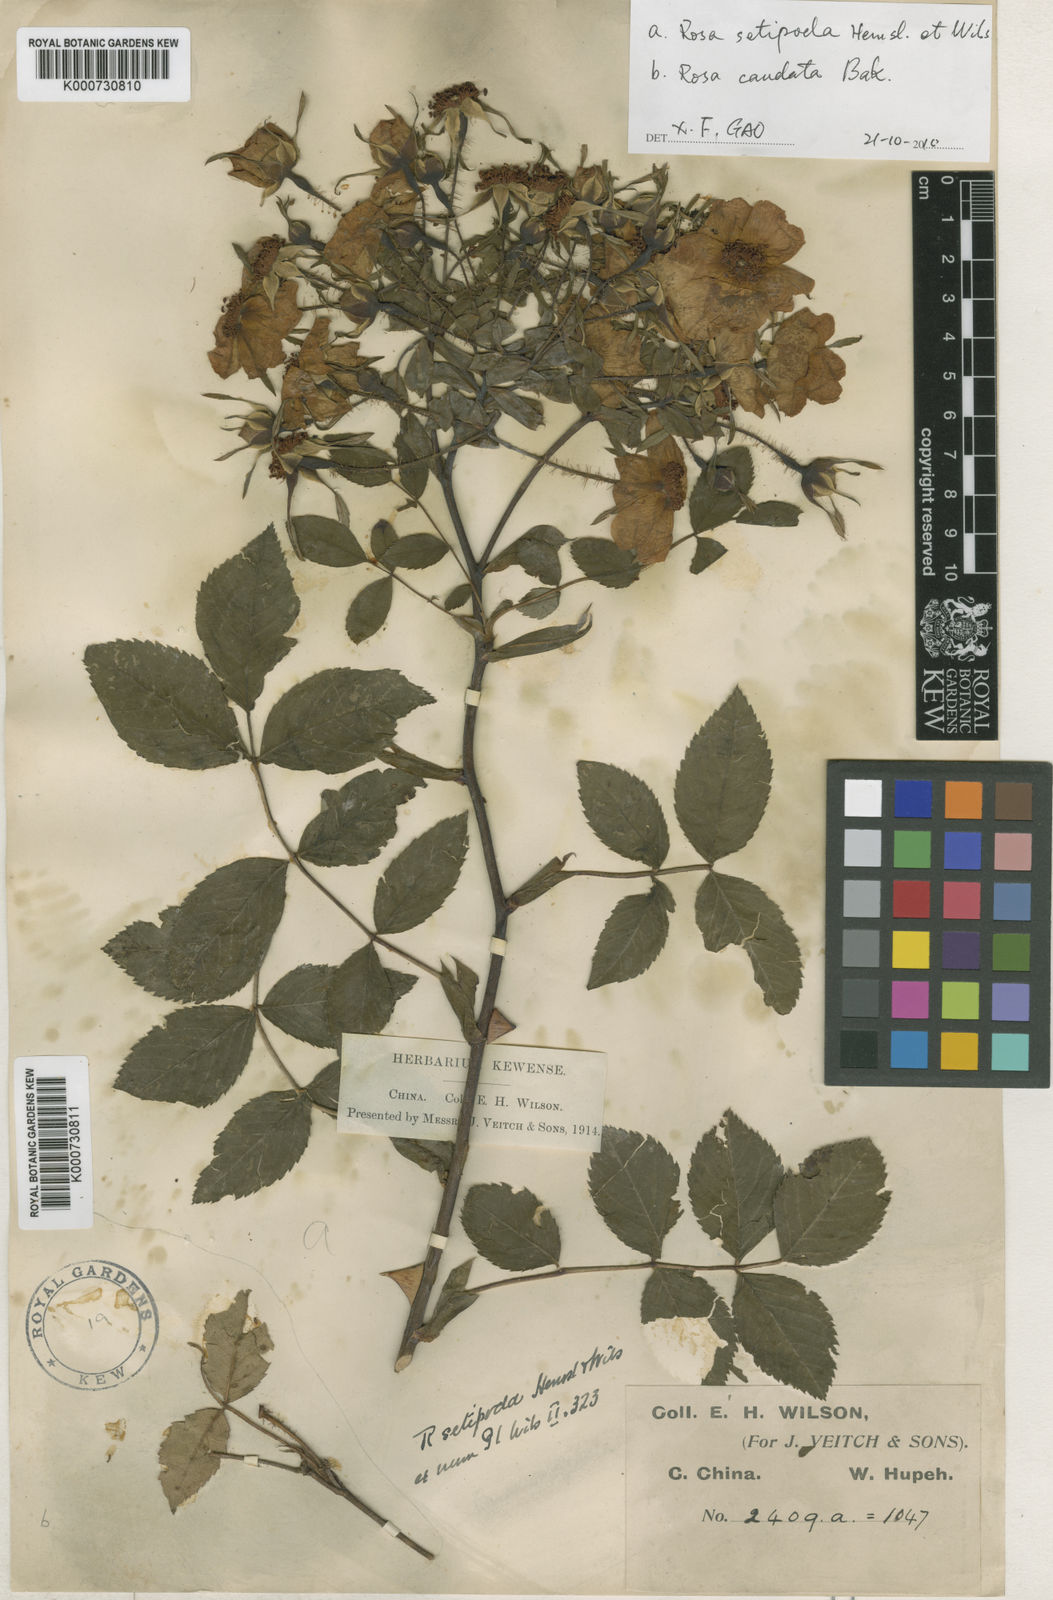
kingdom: Plantae
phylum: Tracheophyta
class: Magnoliopsida
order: Rosales
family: Rosaceae
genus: Rosa
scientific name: Rosa macrophylla
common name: Big-hip rose
